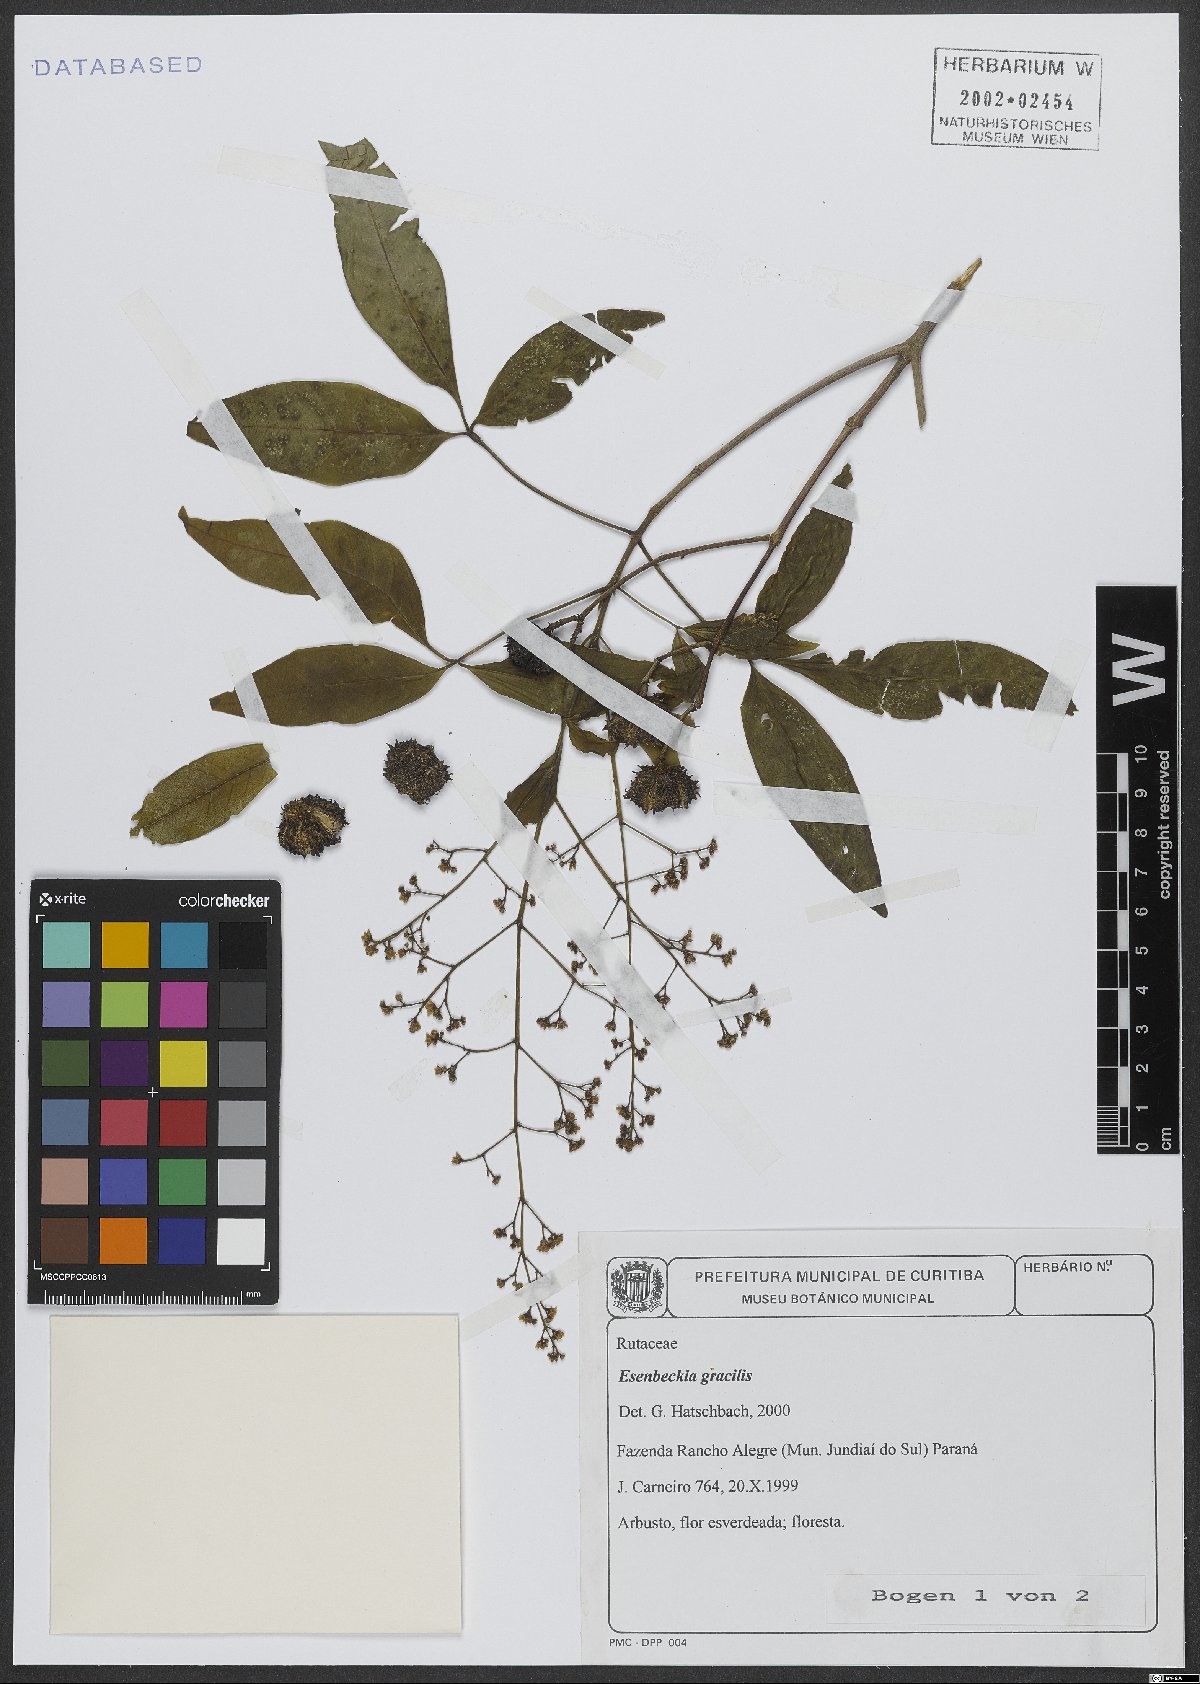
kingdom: Plantae
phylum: Tracheophyta
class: Magnoliopsida
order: Sapindales
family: Rutaceae
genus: Esenbeckia
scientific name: Esenbeckia febrifuga
